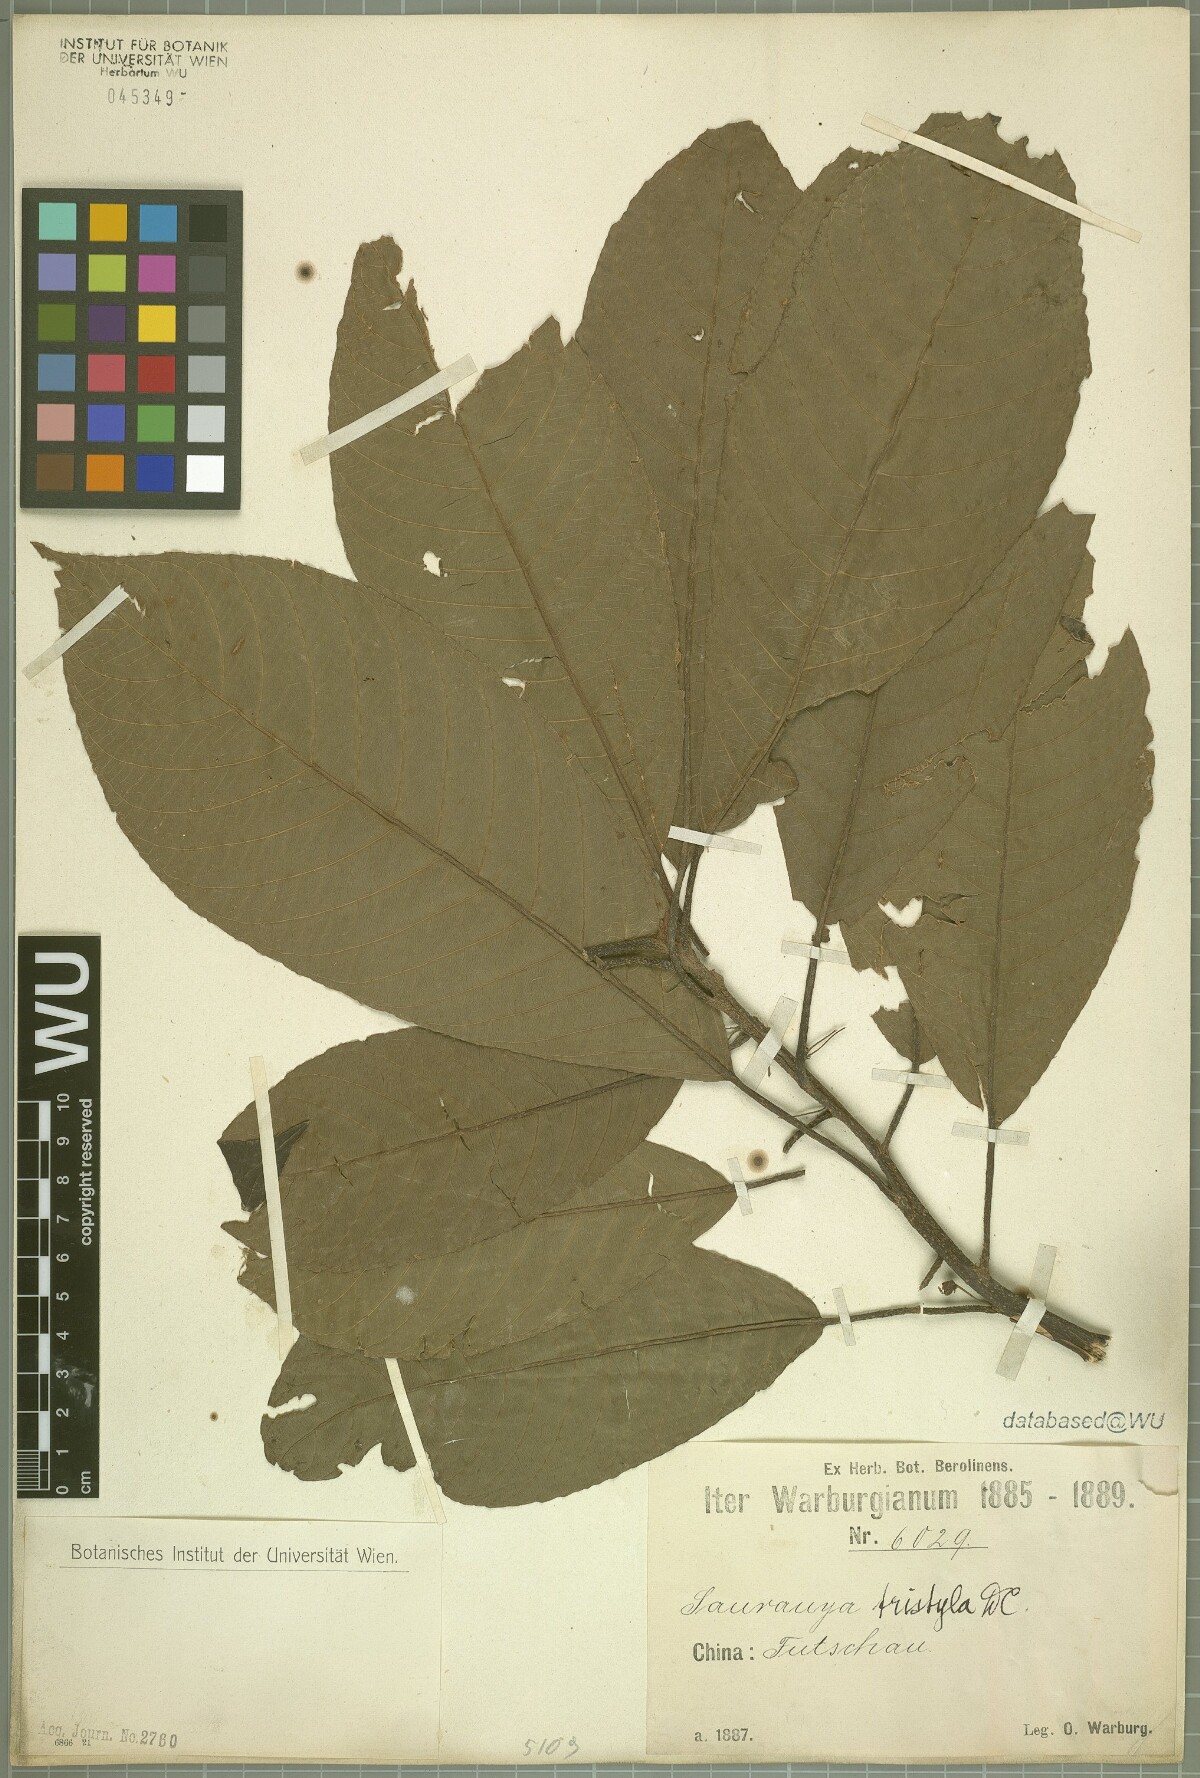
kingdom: Plantae
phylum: Tracheophyta
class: Magnoliopsida
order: Ericales
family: Actinidiaceae
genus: Saurauia
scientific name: Saurauia tristyla
